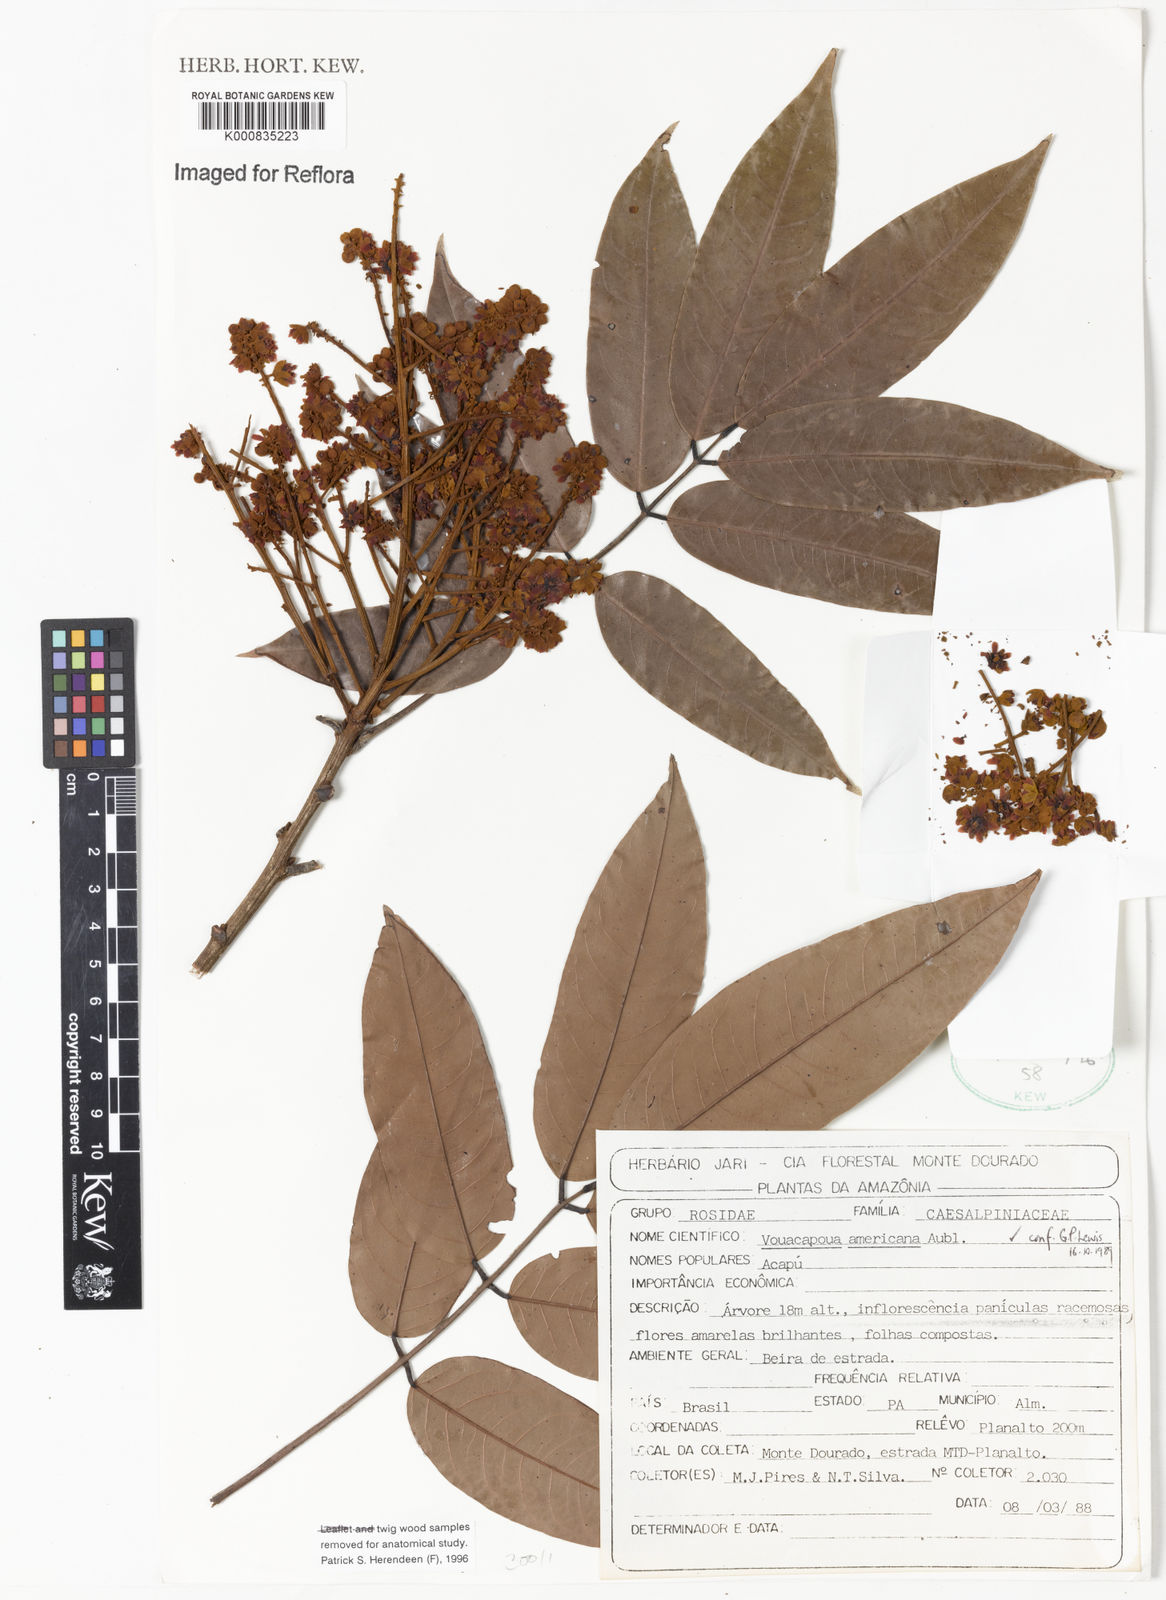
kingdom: Plantae
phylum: Tracheophyta
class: Magnoliopsida
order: Fabales
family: Fabaceae
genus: Vouacapoua
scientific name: Vouacapoua americana
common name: Partridgewood
